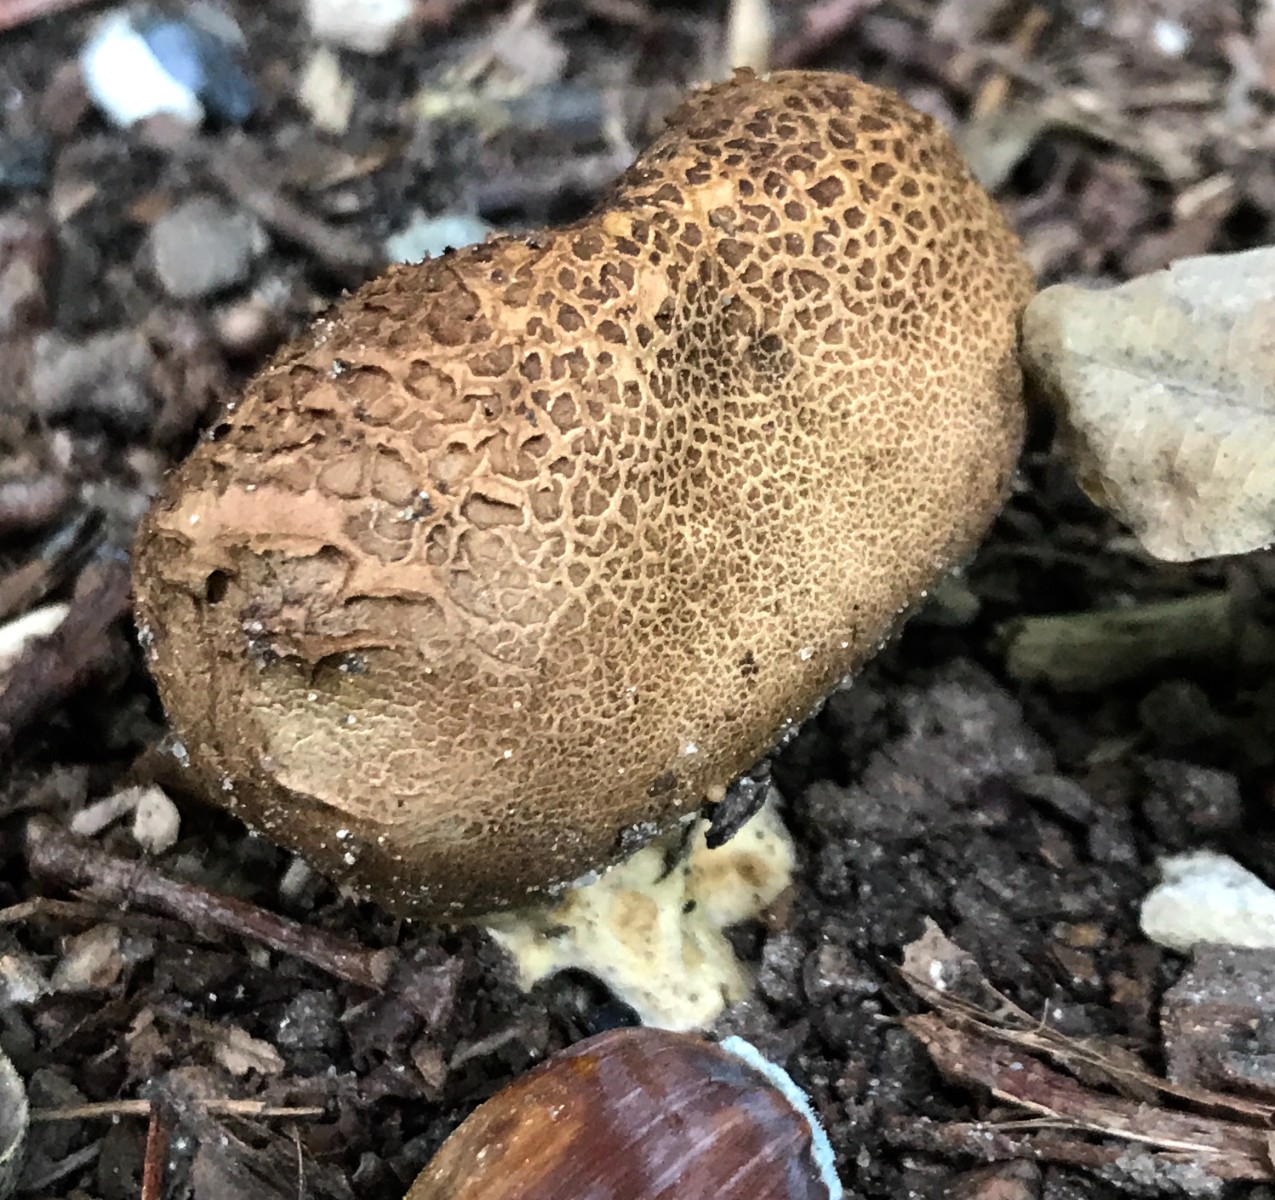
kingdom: Fungi
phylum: Basidiomycota
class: Agaricomycetes
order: Boletales
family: Sclerodermataceae
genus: Scleroderma
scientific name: Scleroderma verrucosum
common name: stilket bruskbold
